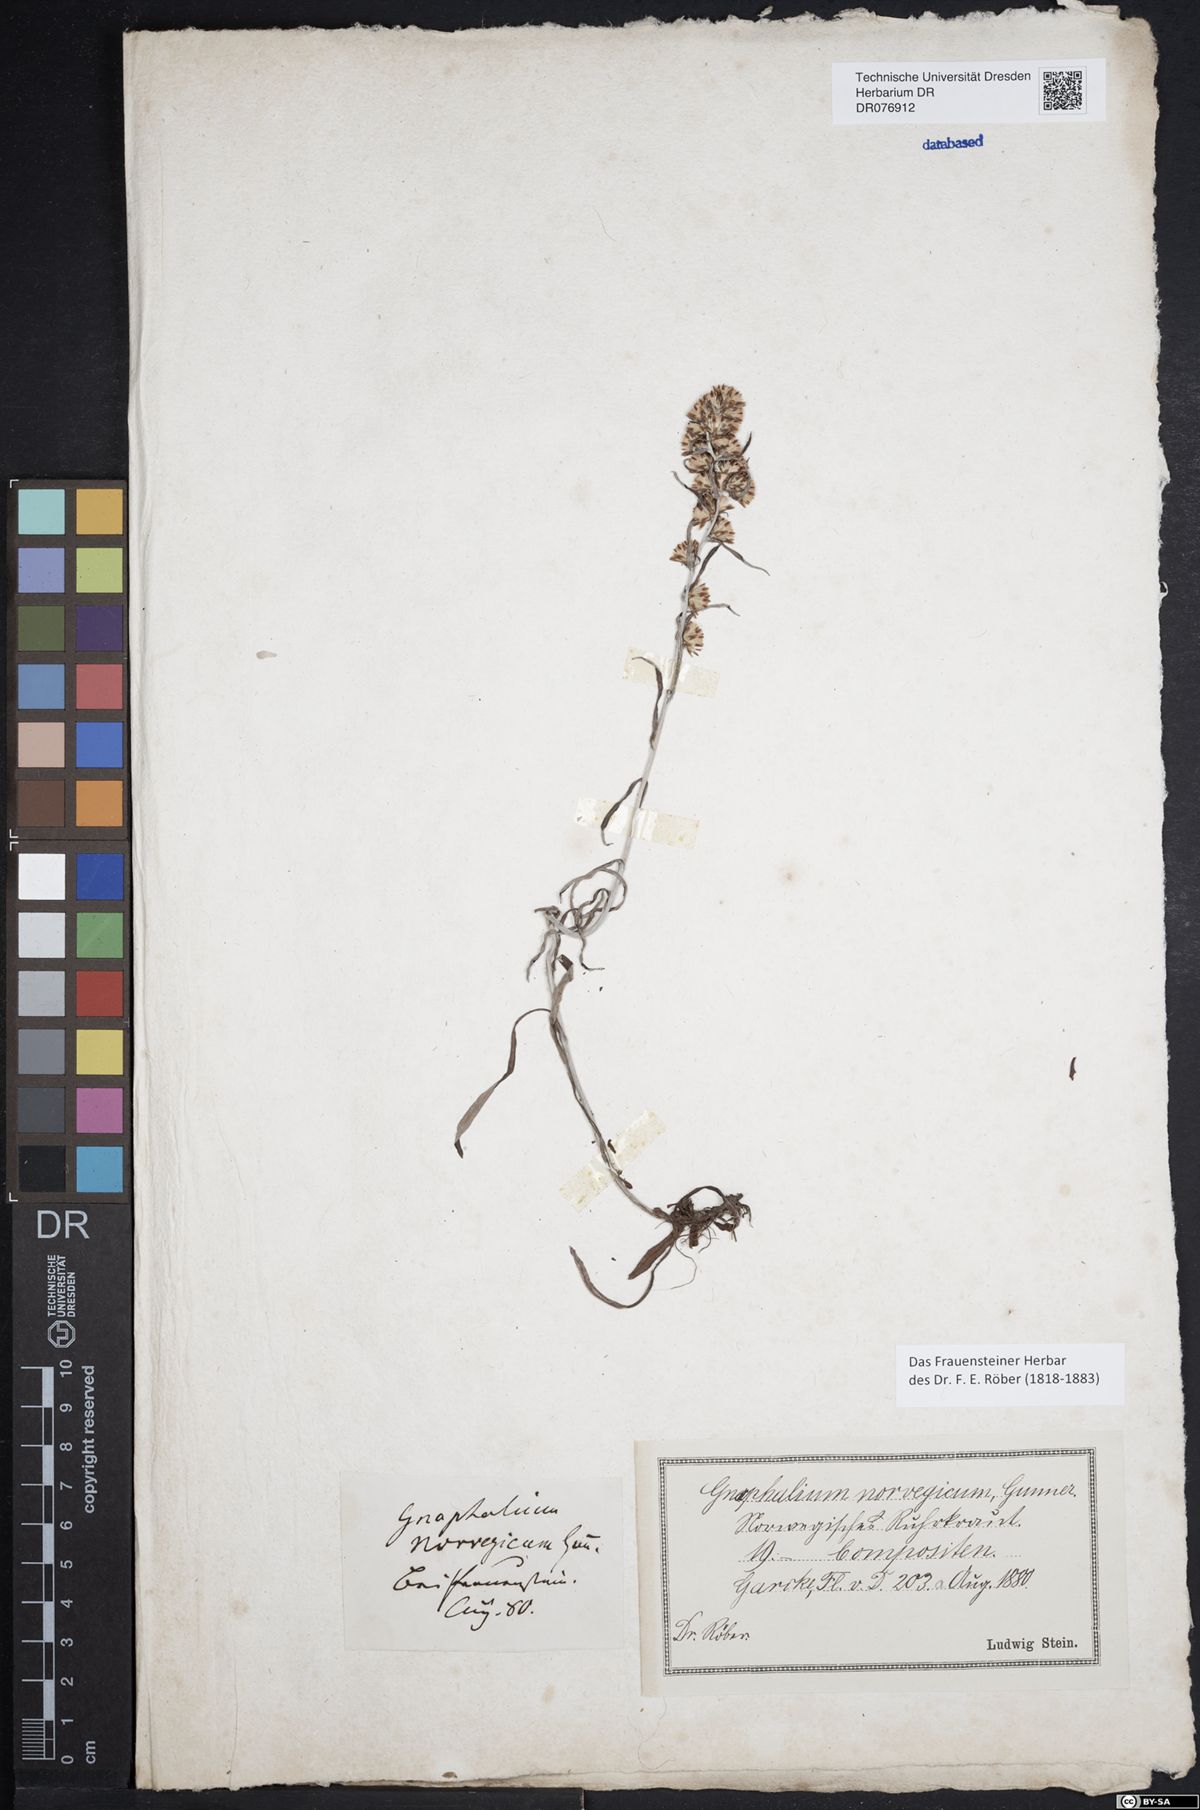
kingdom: Plantae
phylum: Tracheophyta
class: Magnoliopsida
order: Asterales
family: Asteraceae
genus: Omalotheca
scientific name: Omalotheca sylvatica
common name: Heath cudweed
